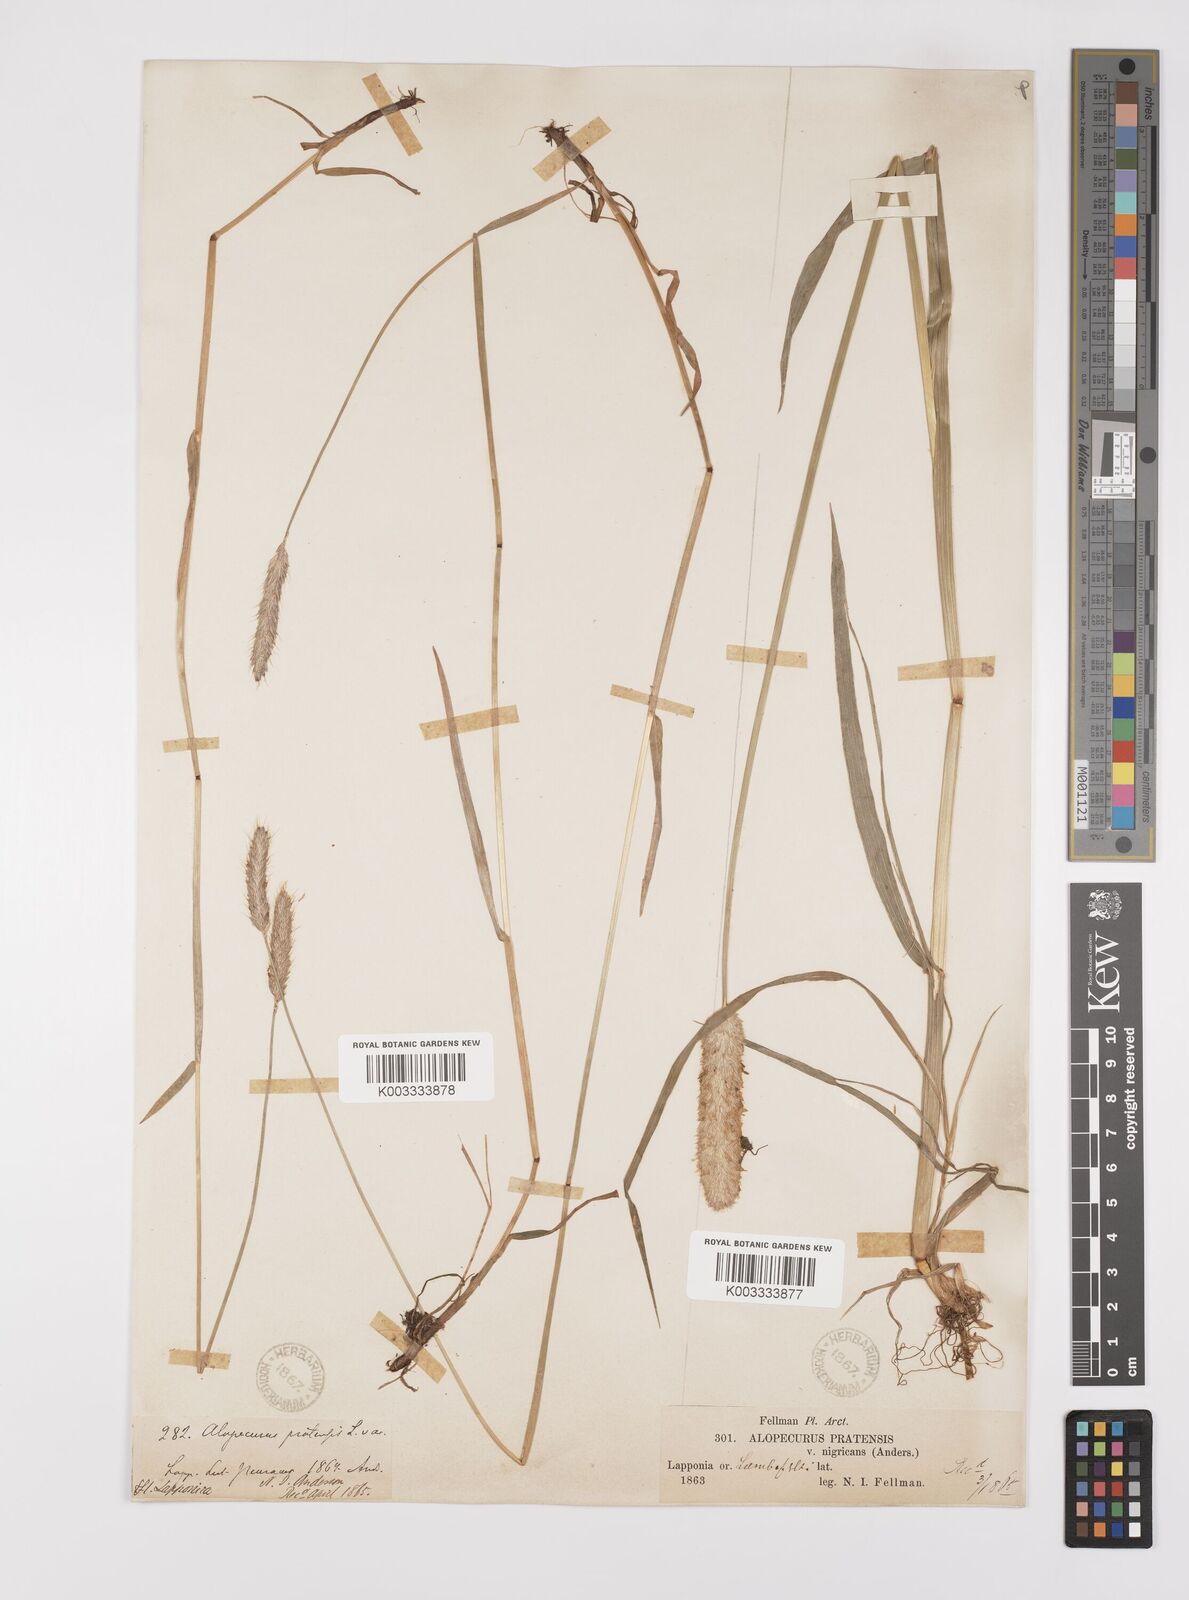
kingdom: Plantae
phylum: Tracheophyta
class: Liliopsida
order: Poales
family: Poaceae
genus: Alopecurus
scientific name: Alopecurus pratensis
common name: Meadow foxtail
